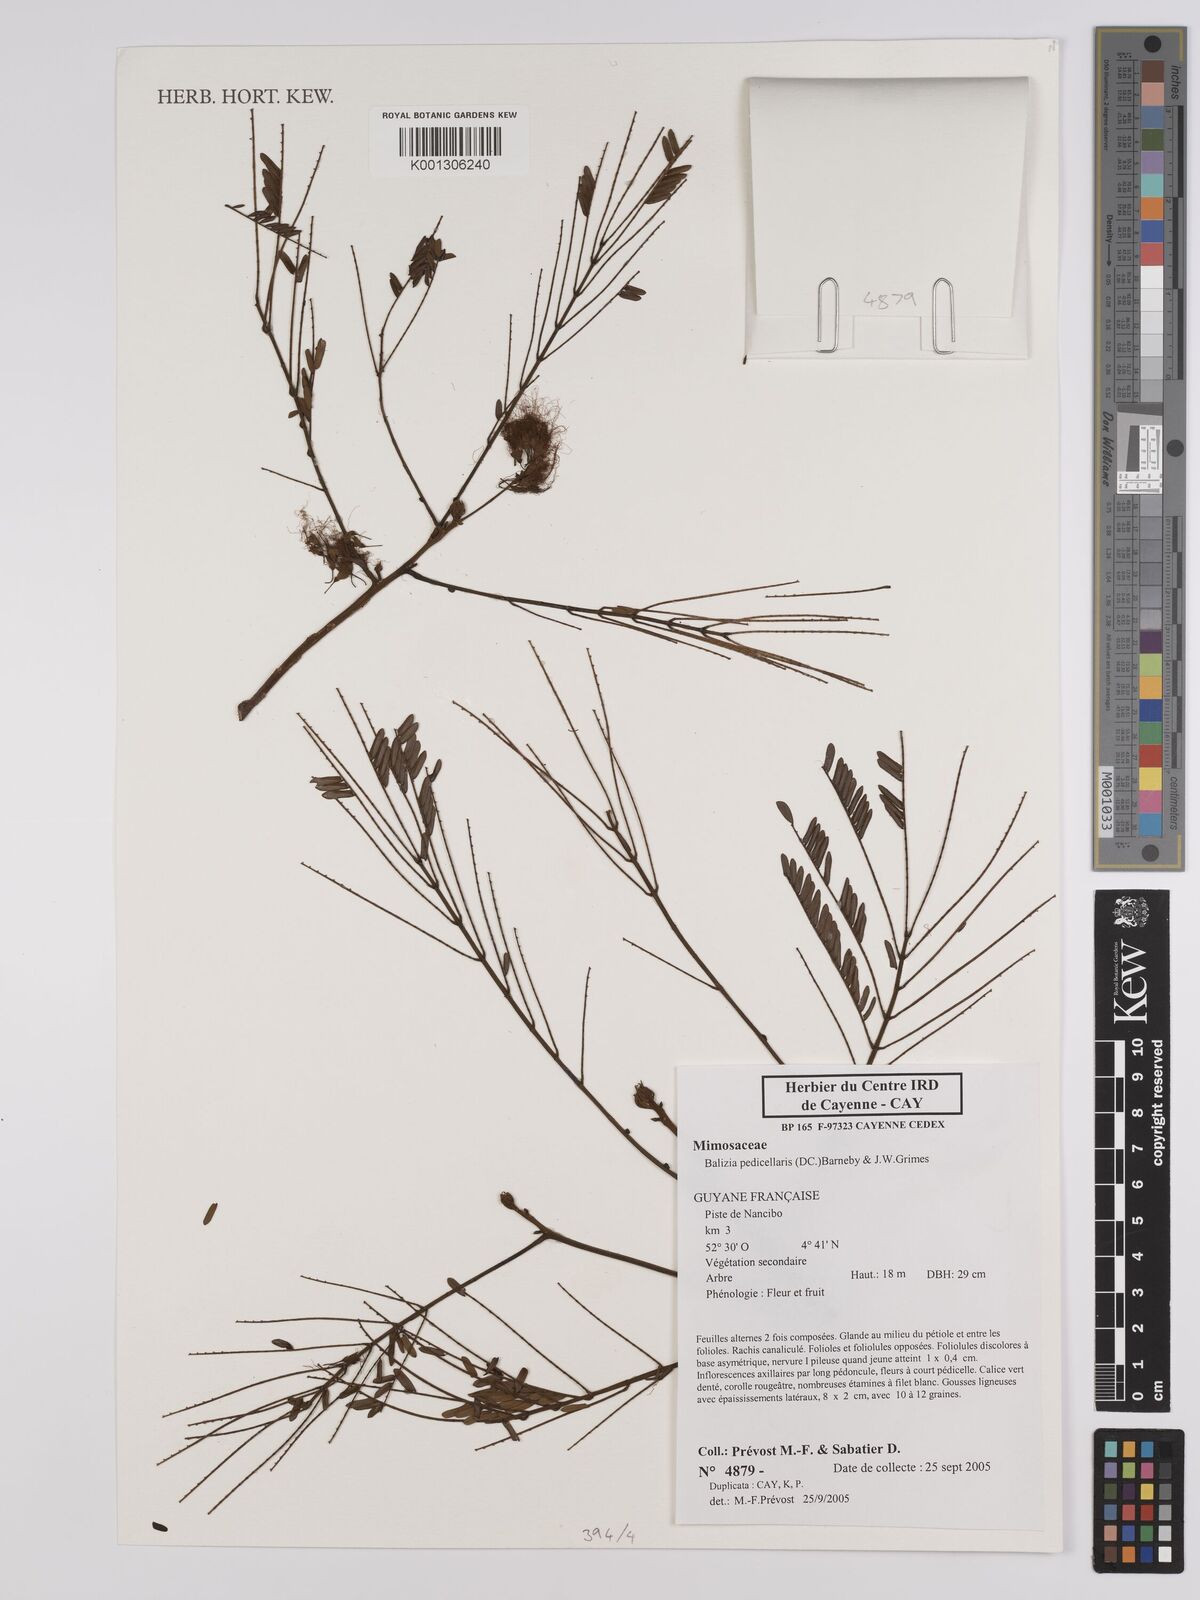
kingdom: Plantae
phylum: Tracheophyta
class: Magnoliopsida
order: Fabales
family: Fabaceae
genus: Balizia
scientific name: Balizia pedicellaris
